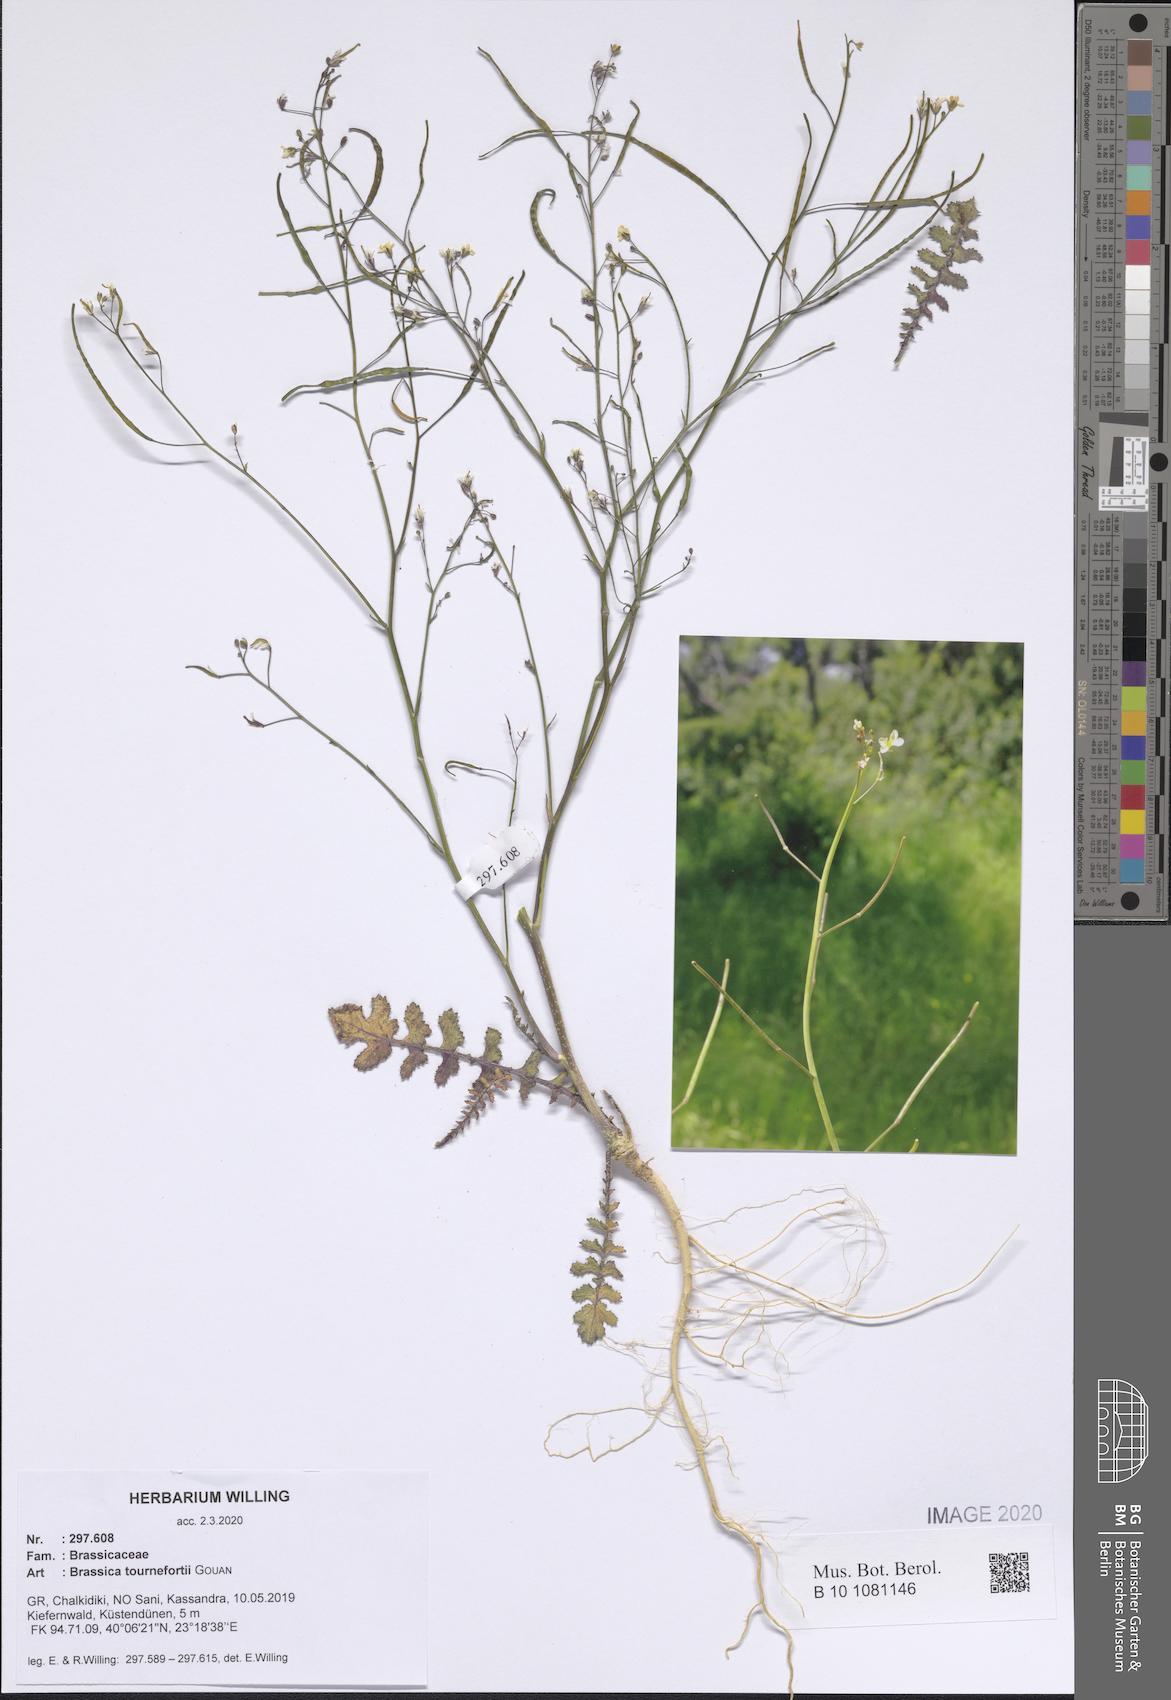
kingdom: Plantae
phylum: Tracheophyta
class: Magnoliopsida
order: Brassicales
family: Brassicaceae
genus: Brassica
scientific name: Brassica tournefortii
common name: Pale cabbage
